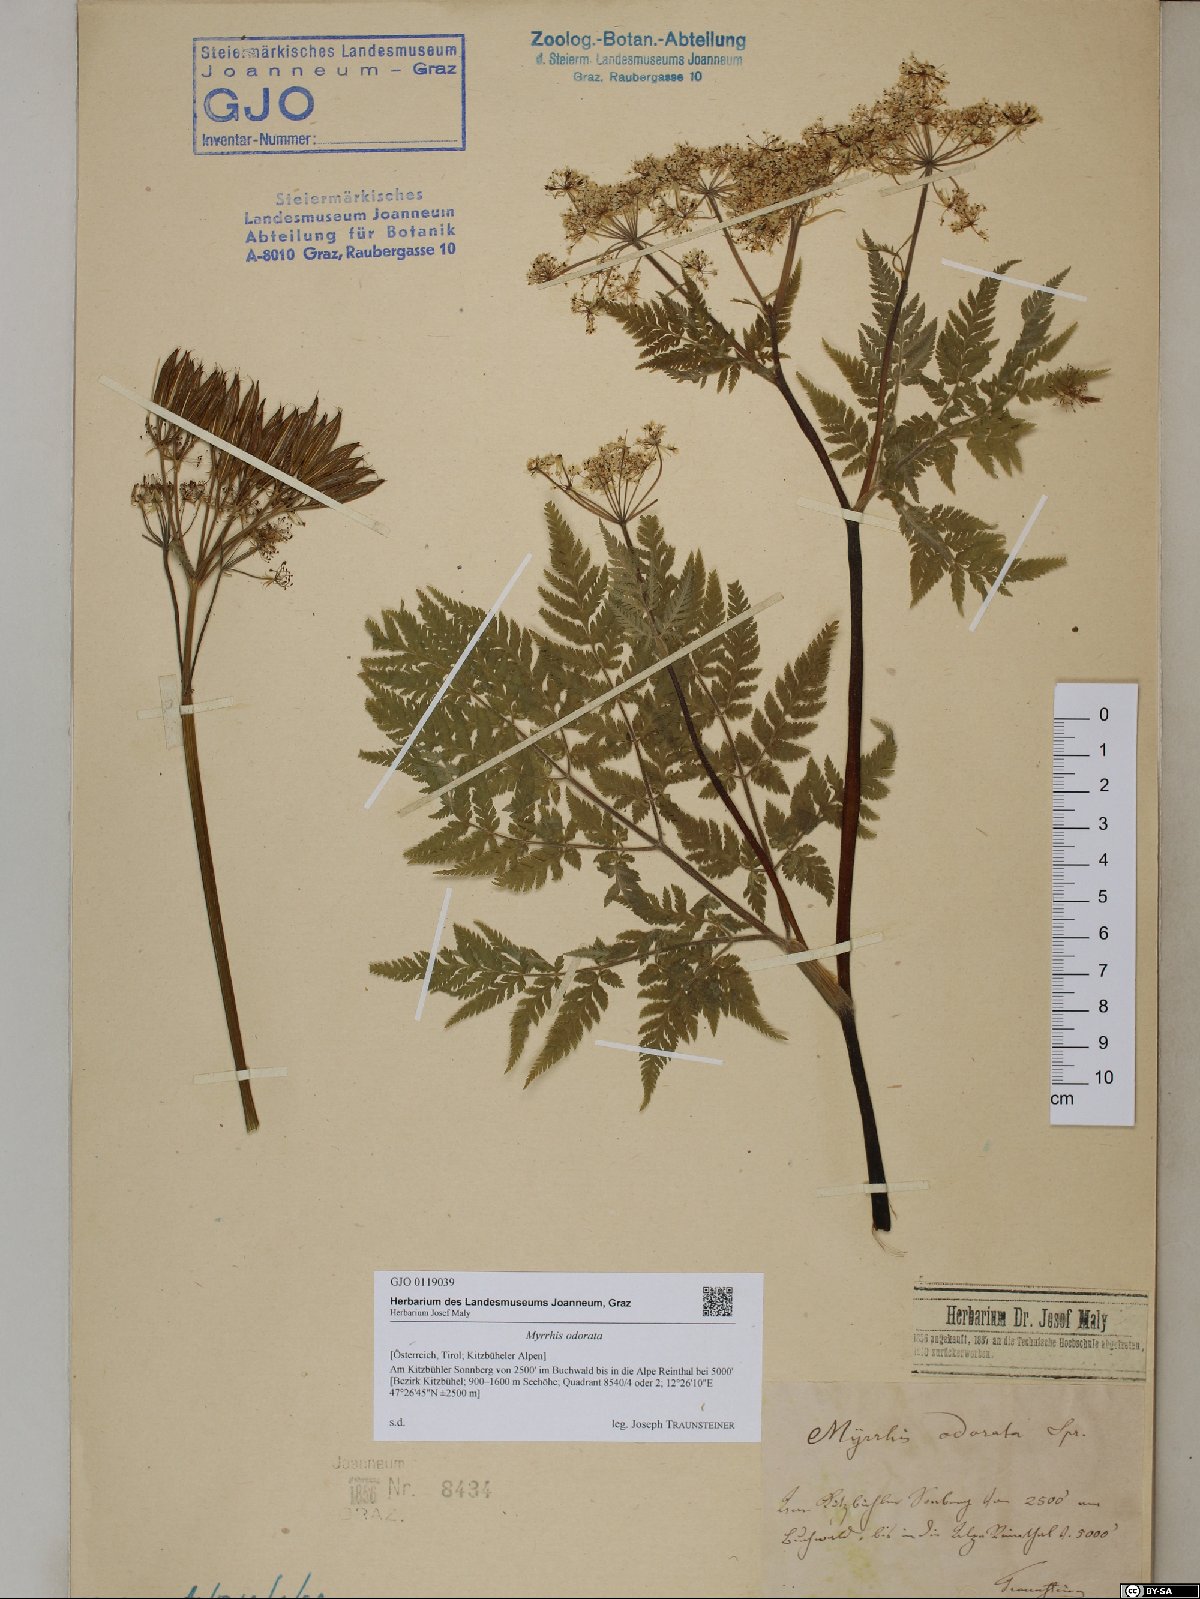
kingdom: Plantae
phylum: Tracheophyta
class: Magnoliopsida
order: Apiales
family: Apiaceae
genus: Myrrhis
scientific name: Myrrhis odorata
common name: Sweet cicely
